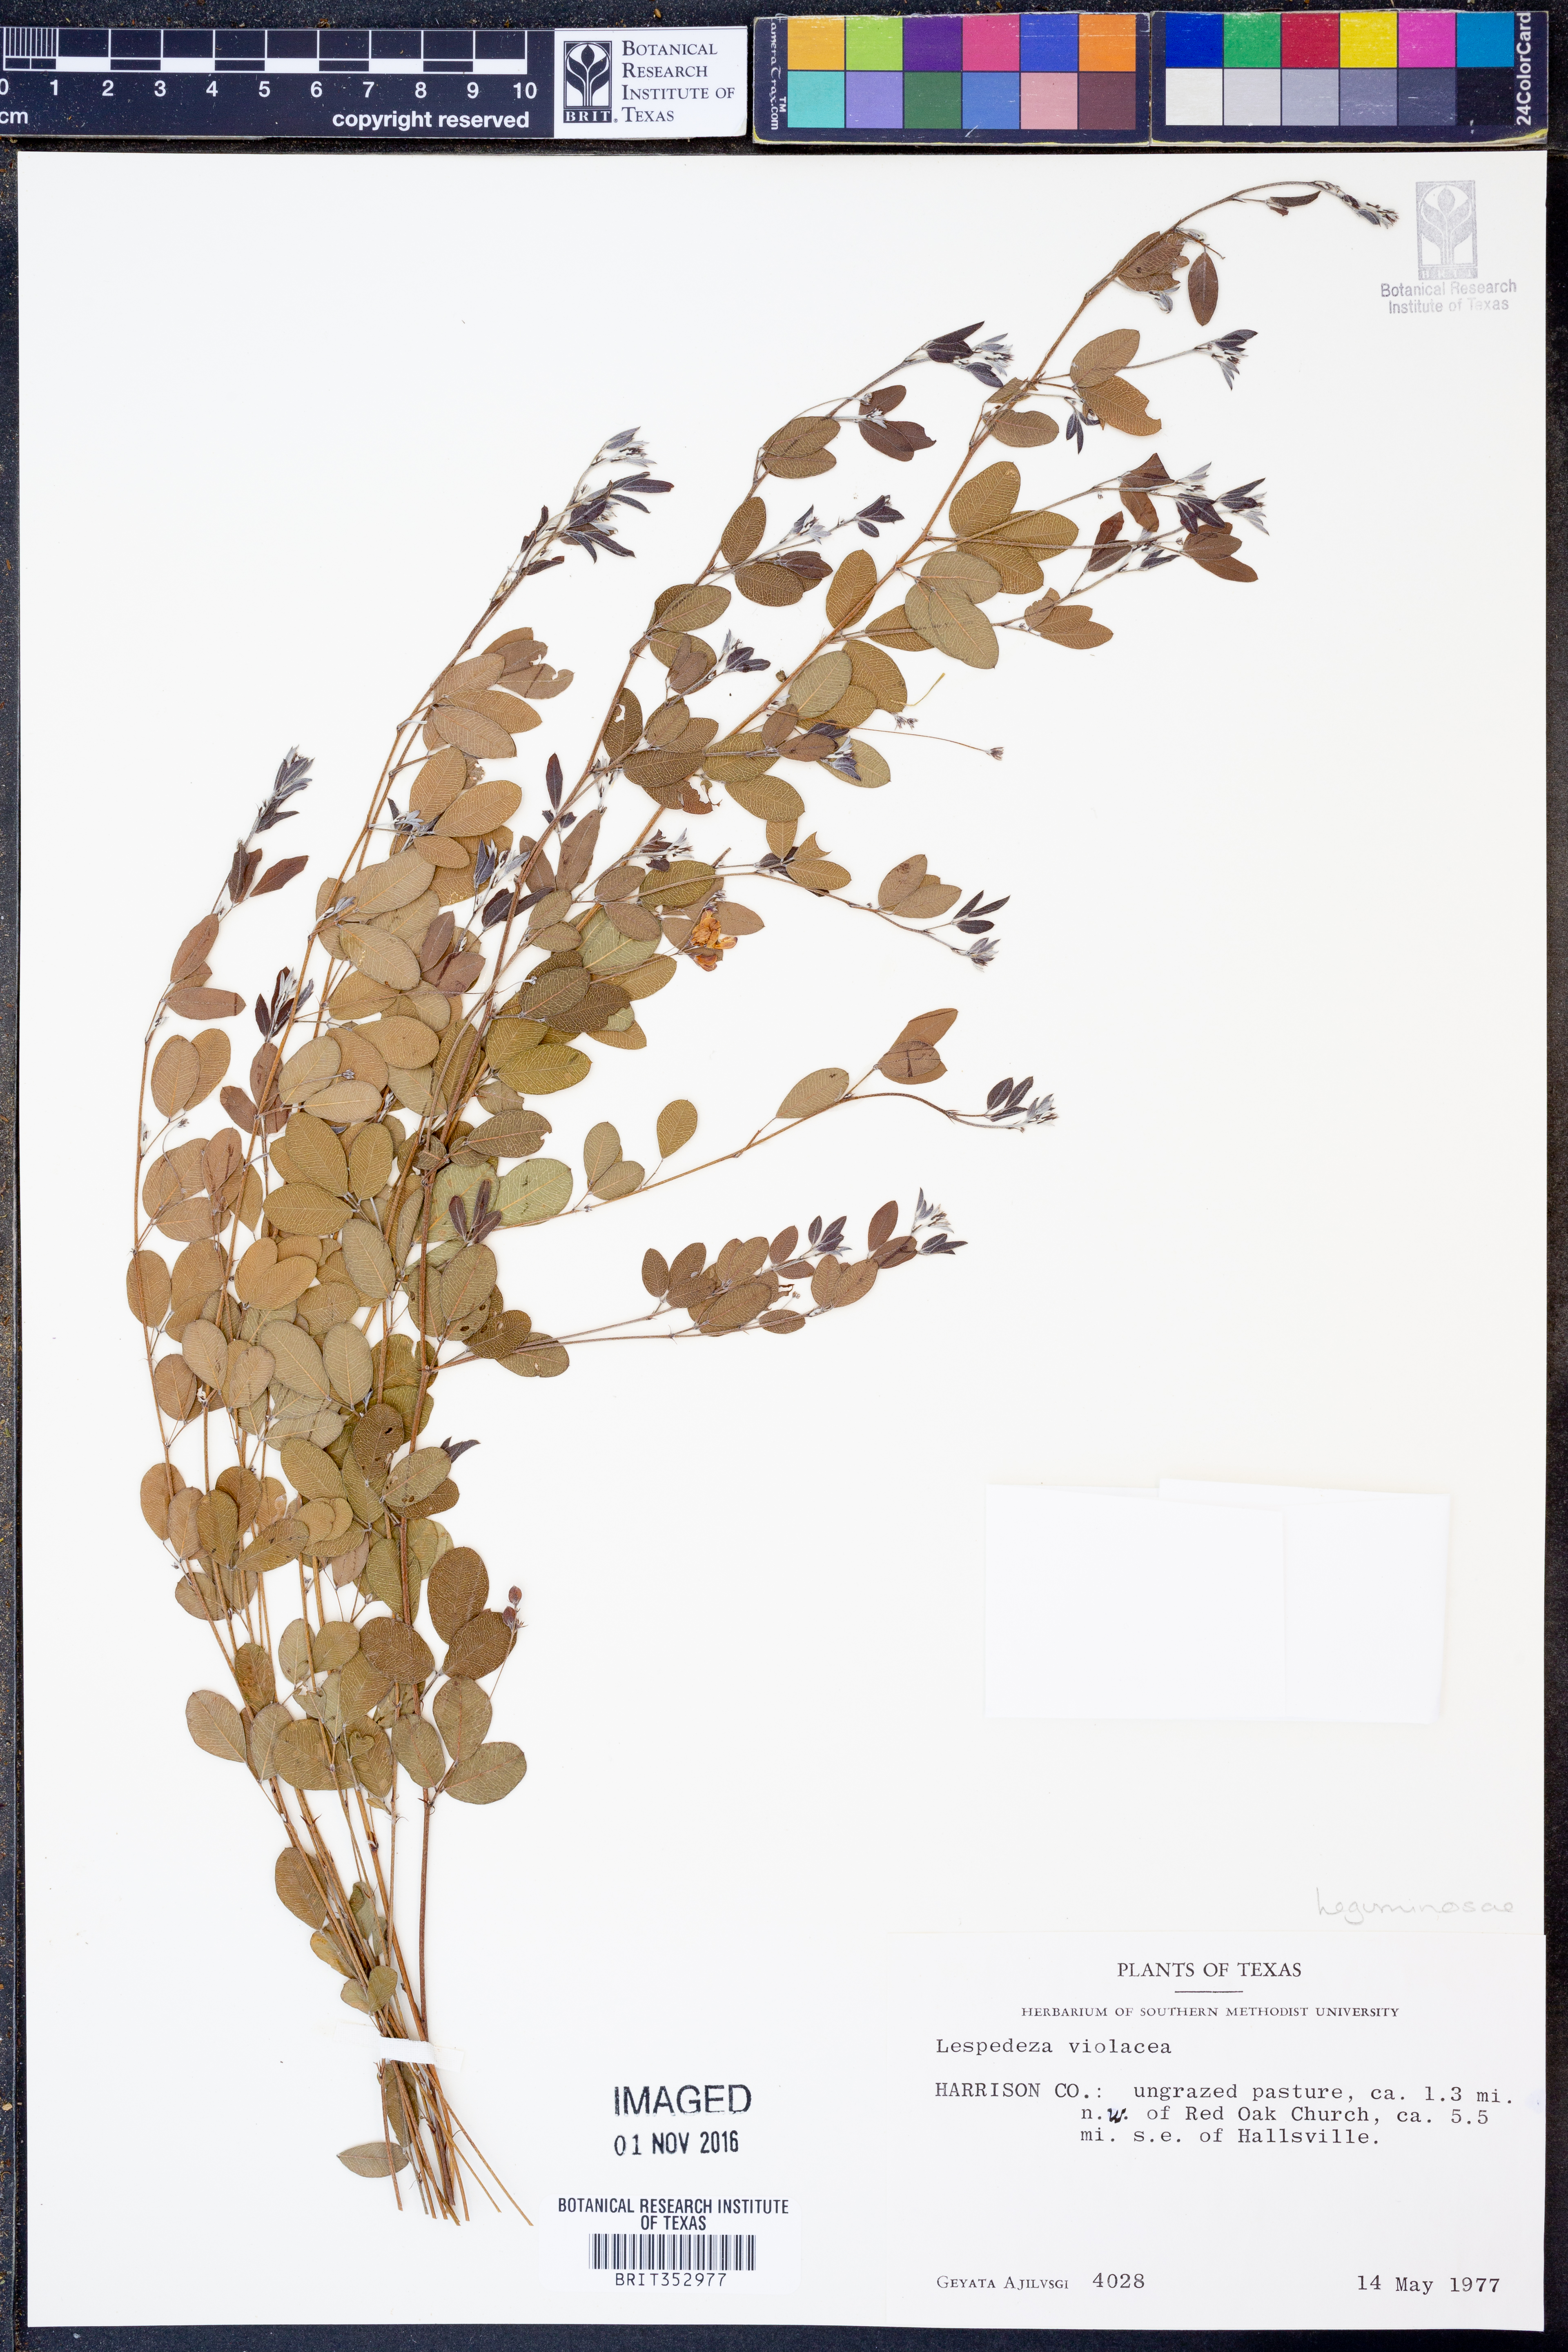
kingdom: Plantae
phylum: Tracheophyta
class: Magnoliopsida
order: Fabales
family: Fabaceae
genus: Lespedeza
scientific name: Lespedeza violacea
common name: Wand bush-clover
